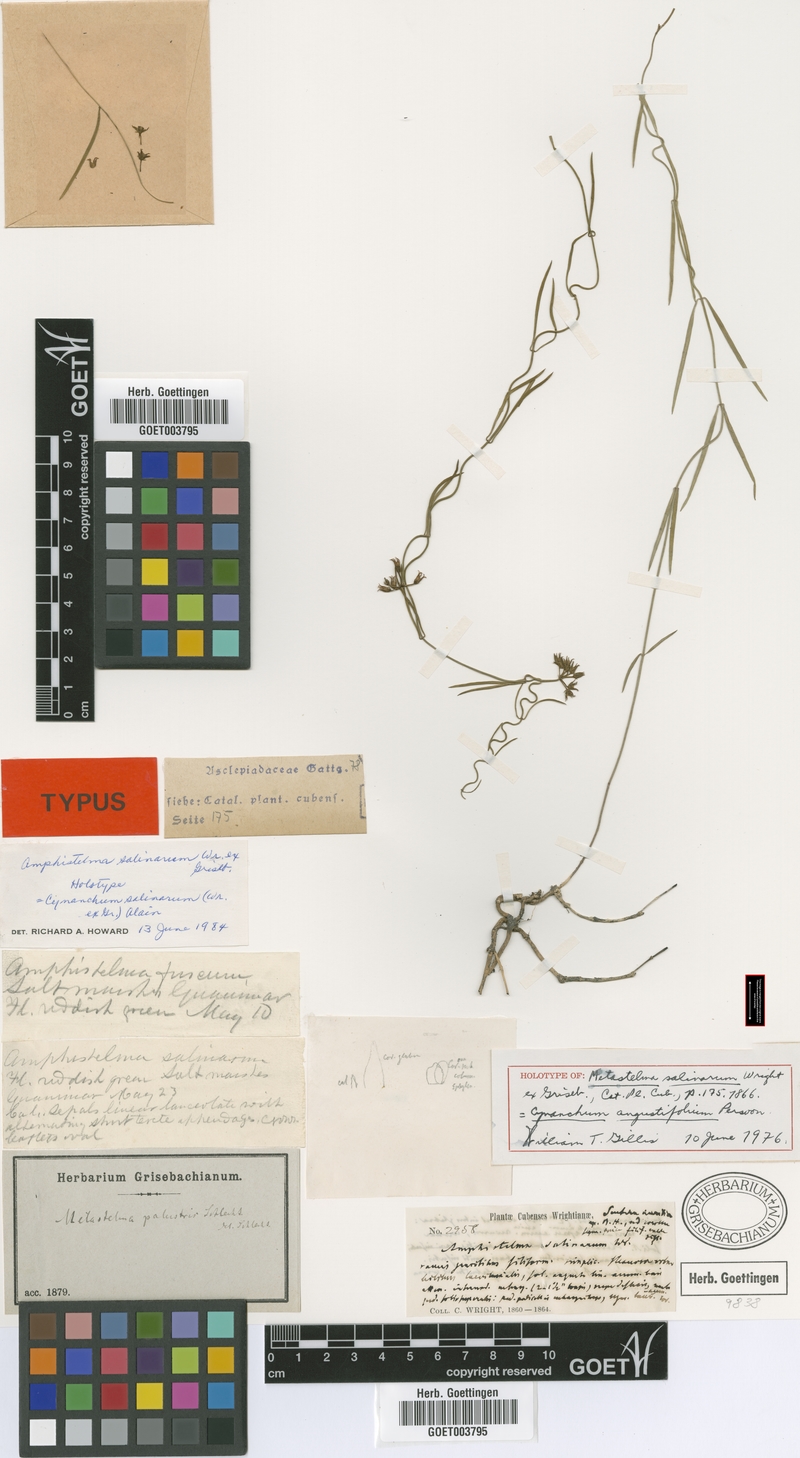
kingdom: Plantae
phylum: Tracheophyta
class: Magnoliopsida
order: Gentianales
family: Apocynaceae
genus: Pattalias
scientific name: Pattalias palustris
